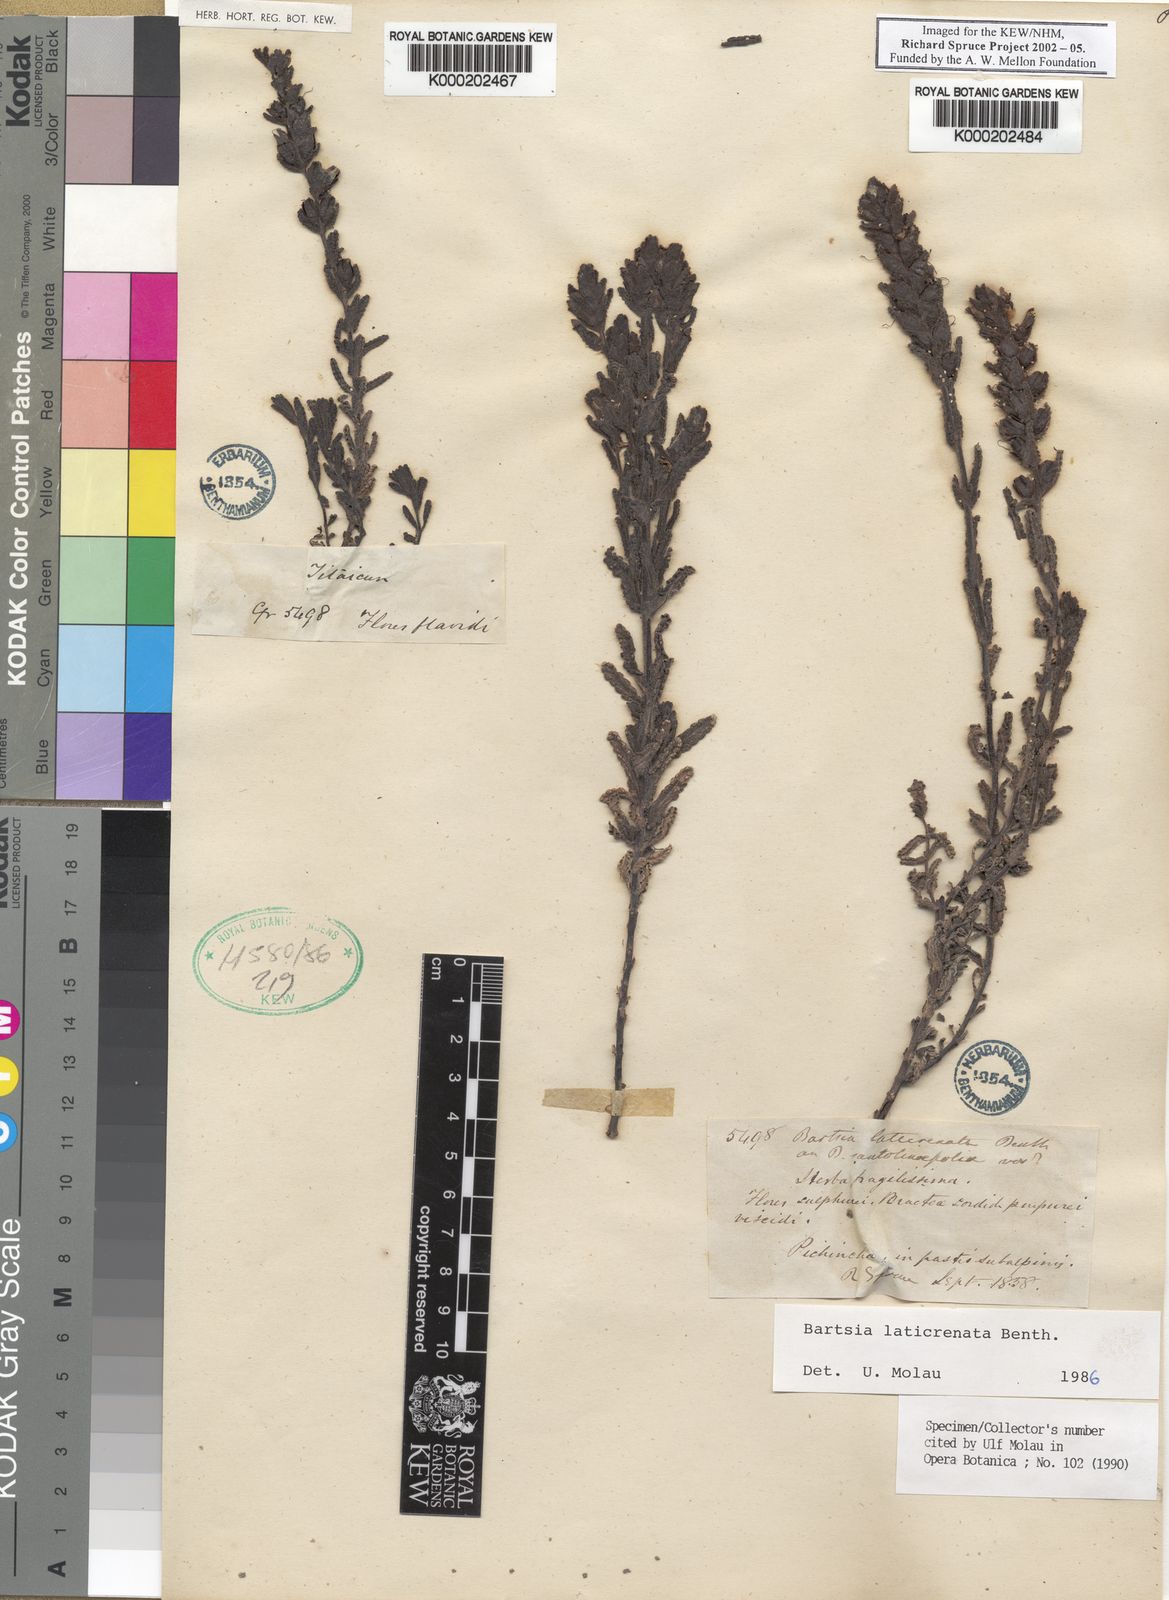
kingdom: Plantae
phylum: Tracheophyta
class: Magnoliopsida
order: Lamiales
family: Orobanchaceae
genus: Neobartsia
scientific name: Neobartsia laticrenata
